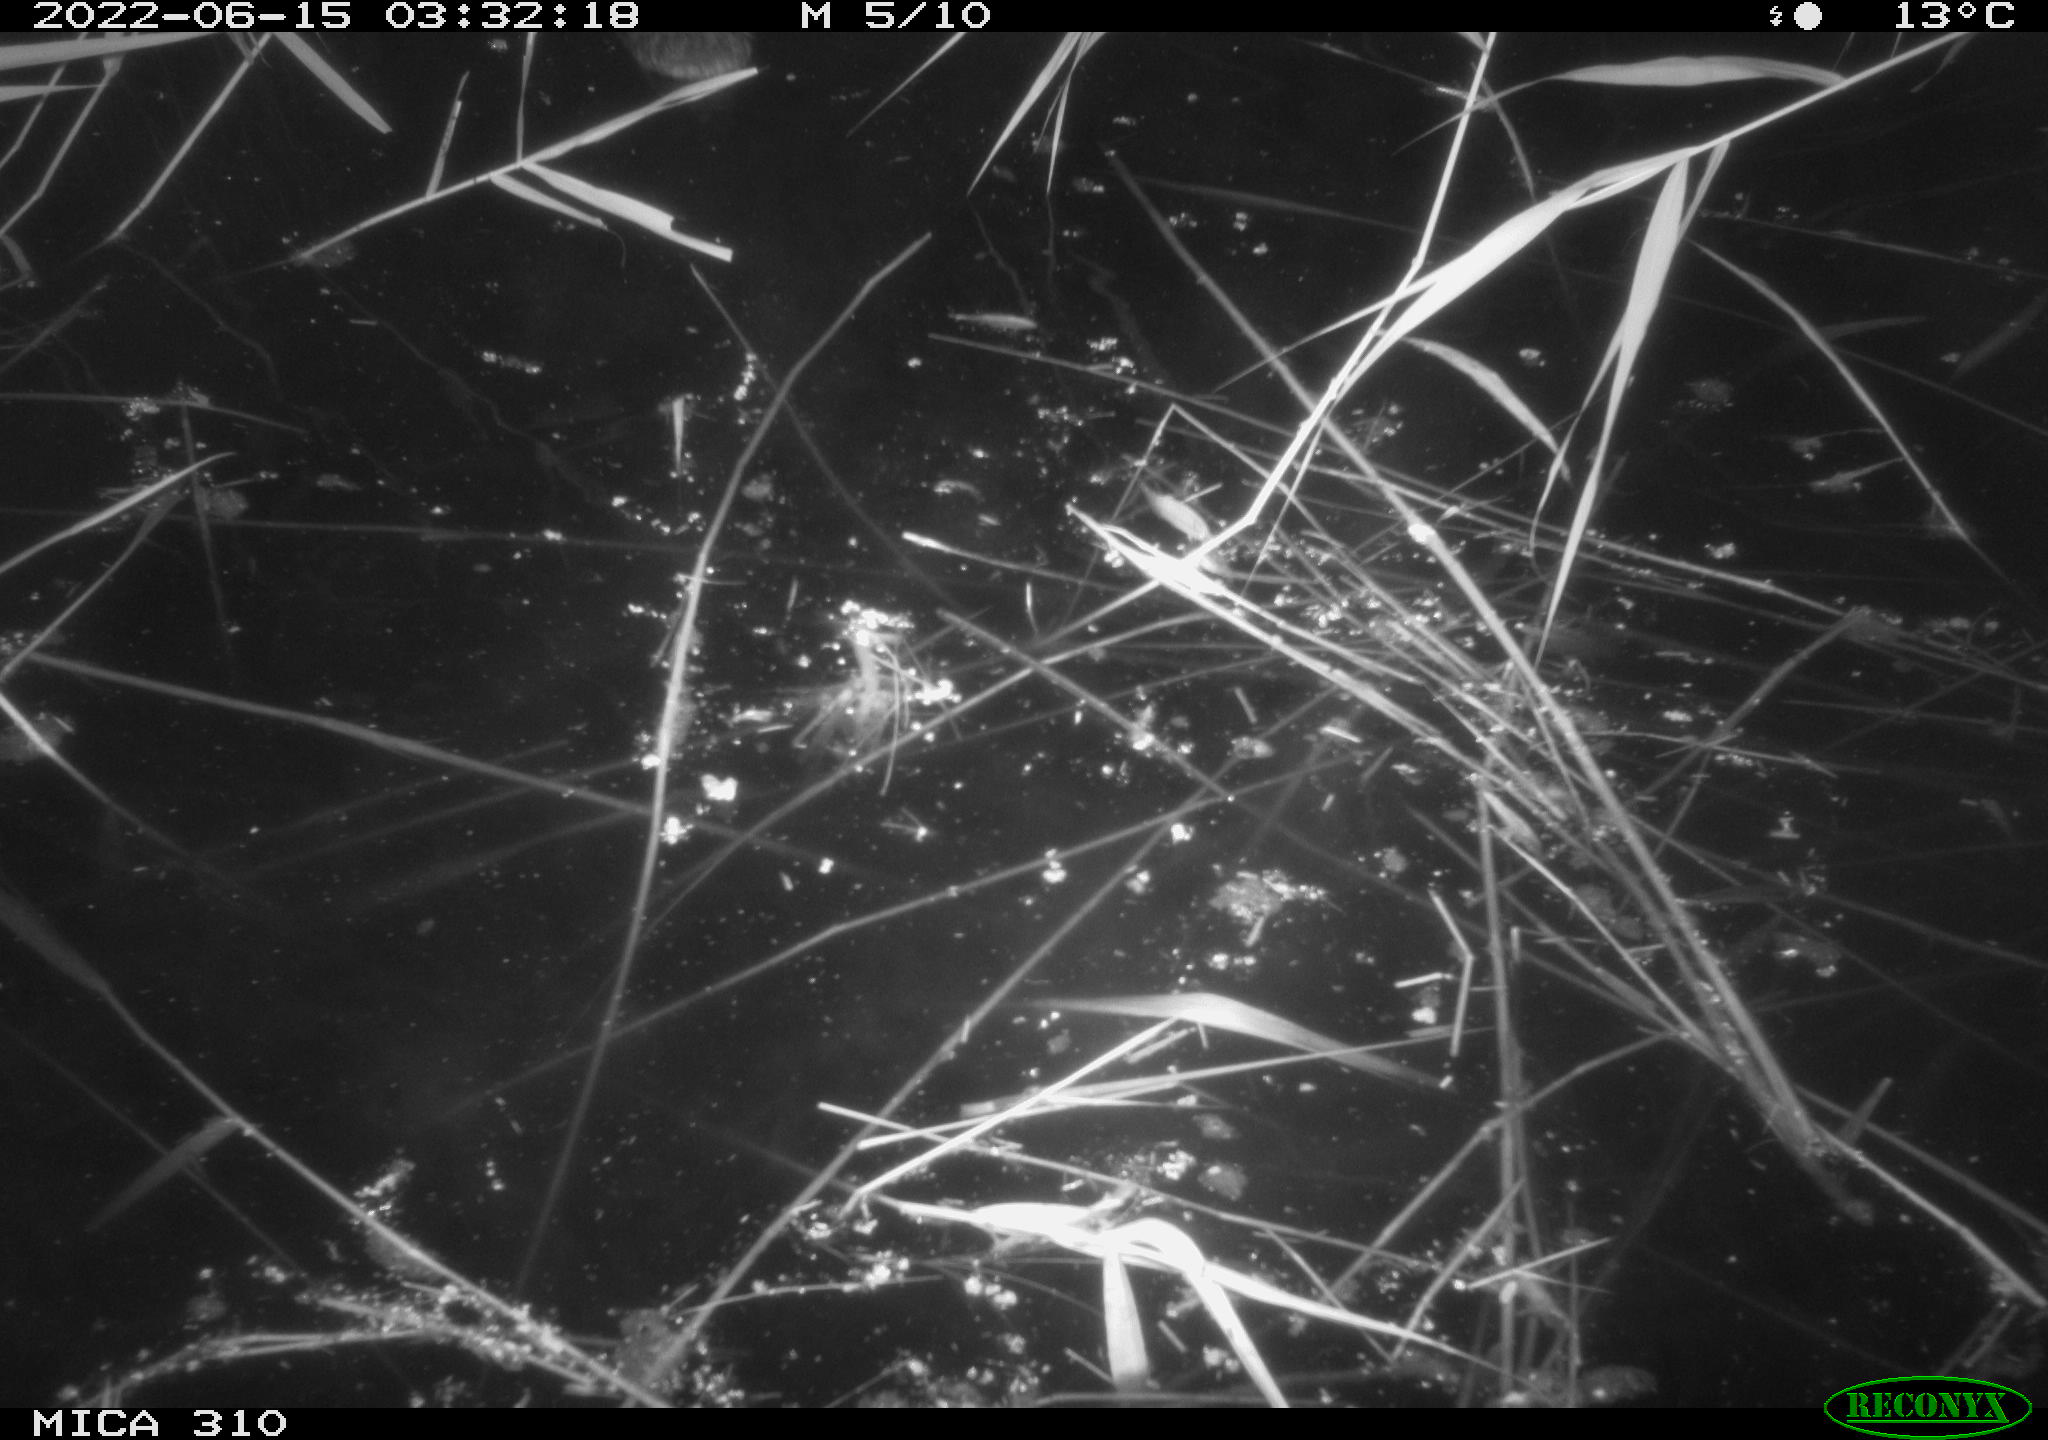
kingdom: Animalia
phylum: Chordata
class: Aves
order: Gruiformes
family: Rallidae
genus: Gallinula
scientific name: Gallinula chloropus
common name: Common moorhen
